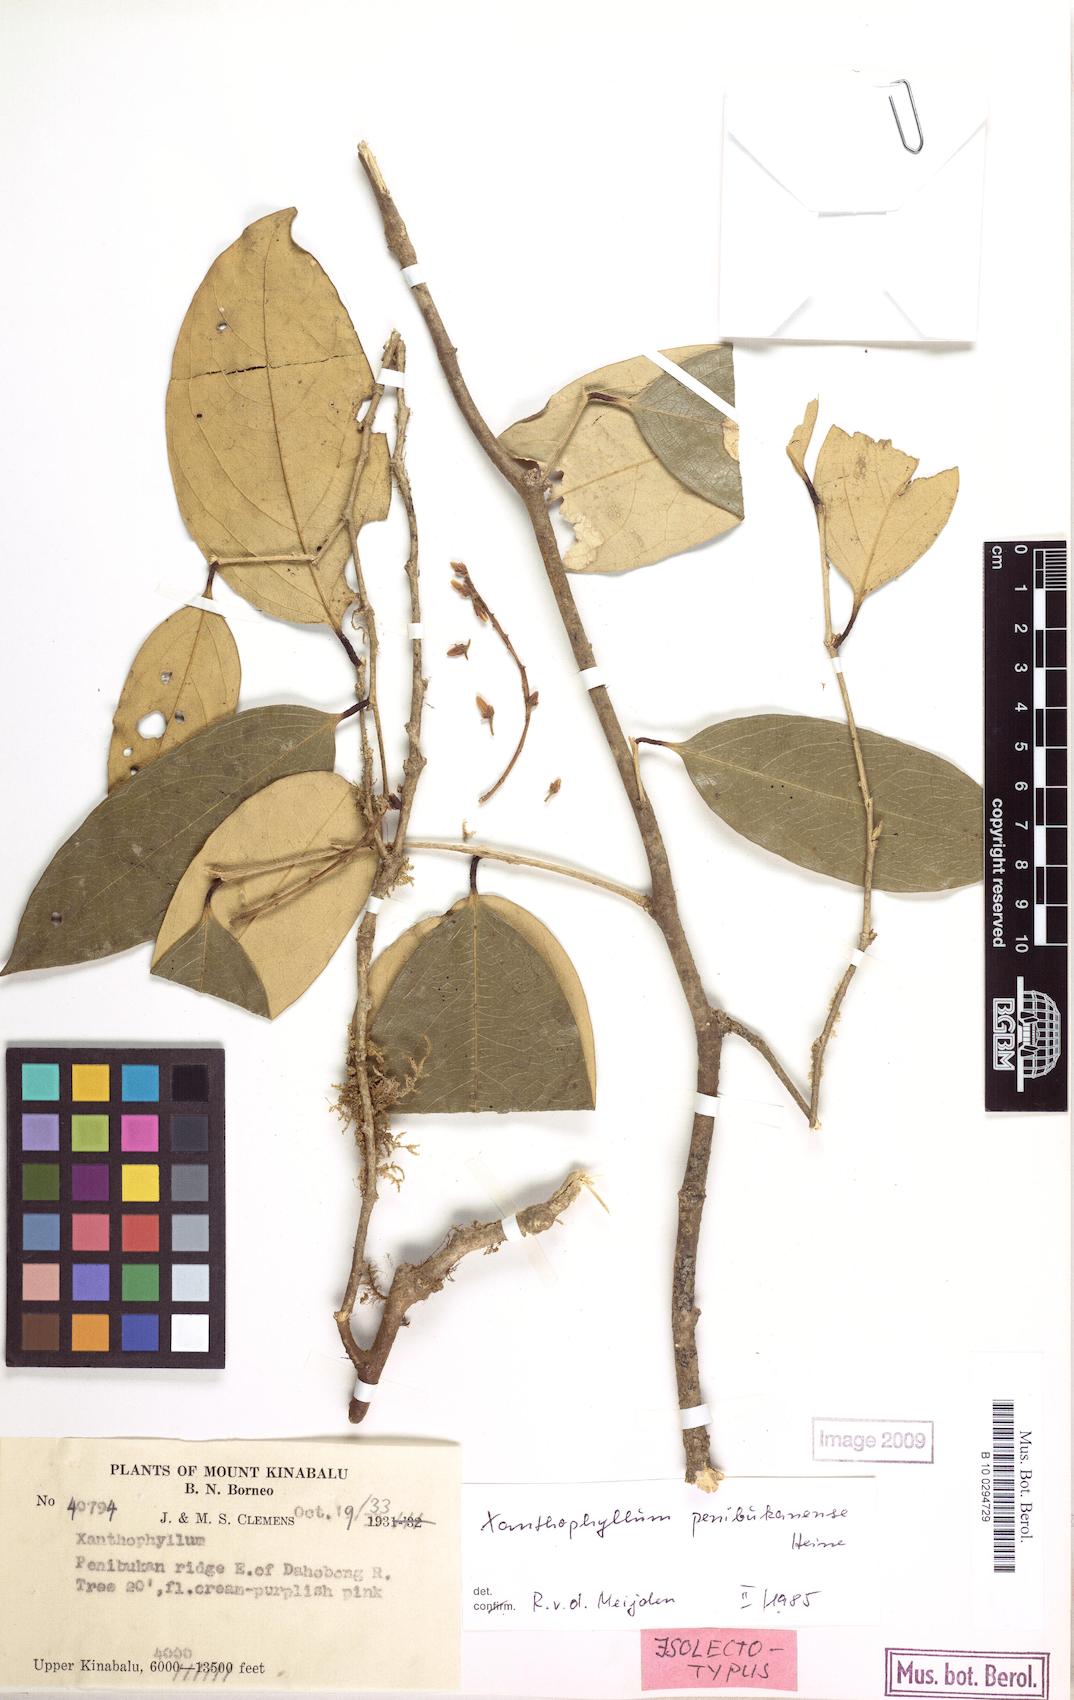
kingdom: Plantae
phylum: Tracheophyta
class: Magnoliopsida
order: Fabales
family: Polygalaceae
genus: Xanthophyllum
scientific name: Xanthophyllum penibukanense
